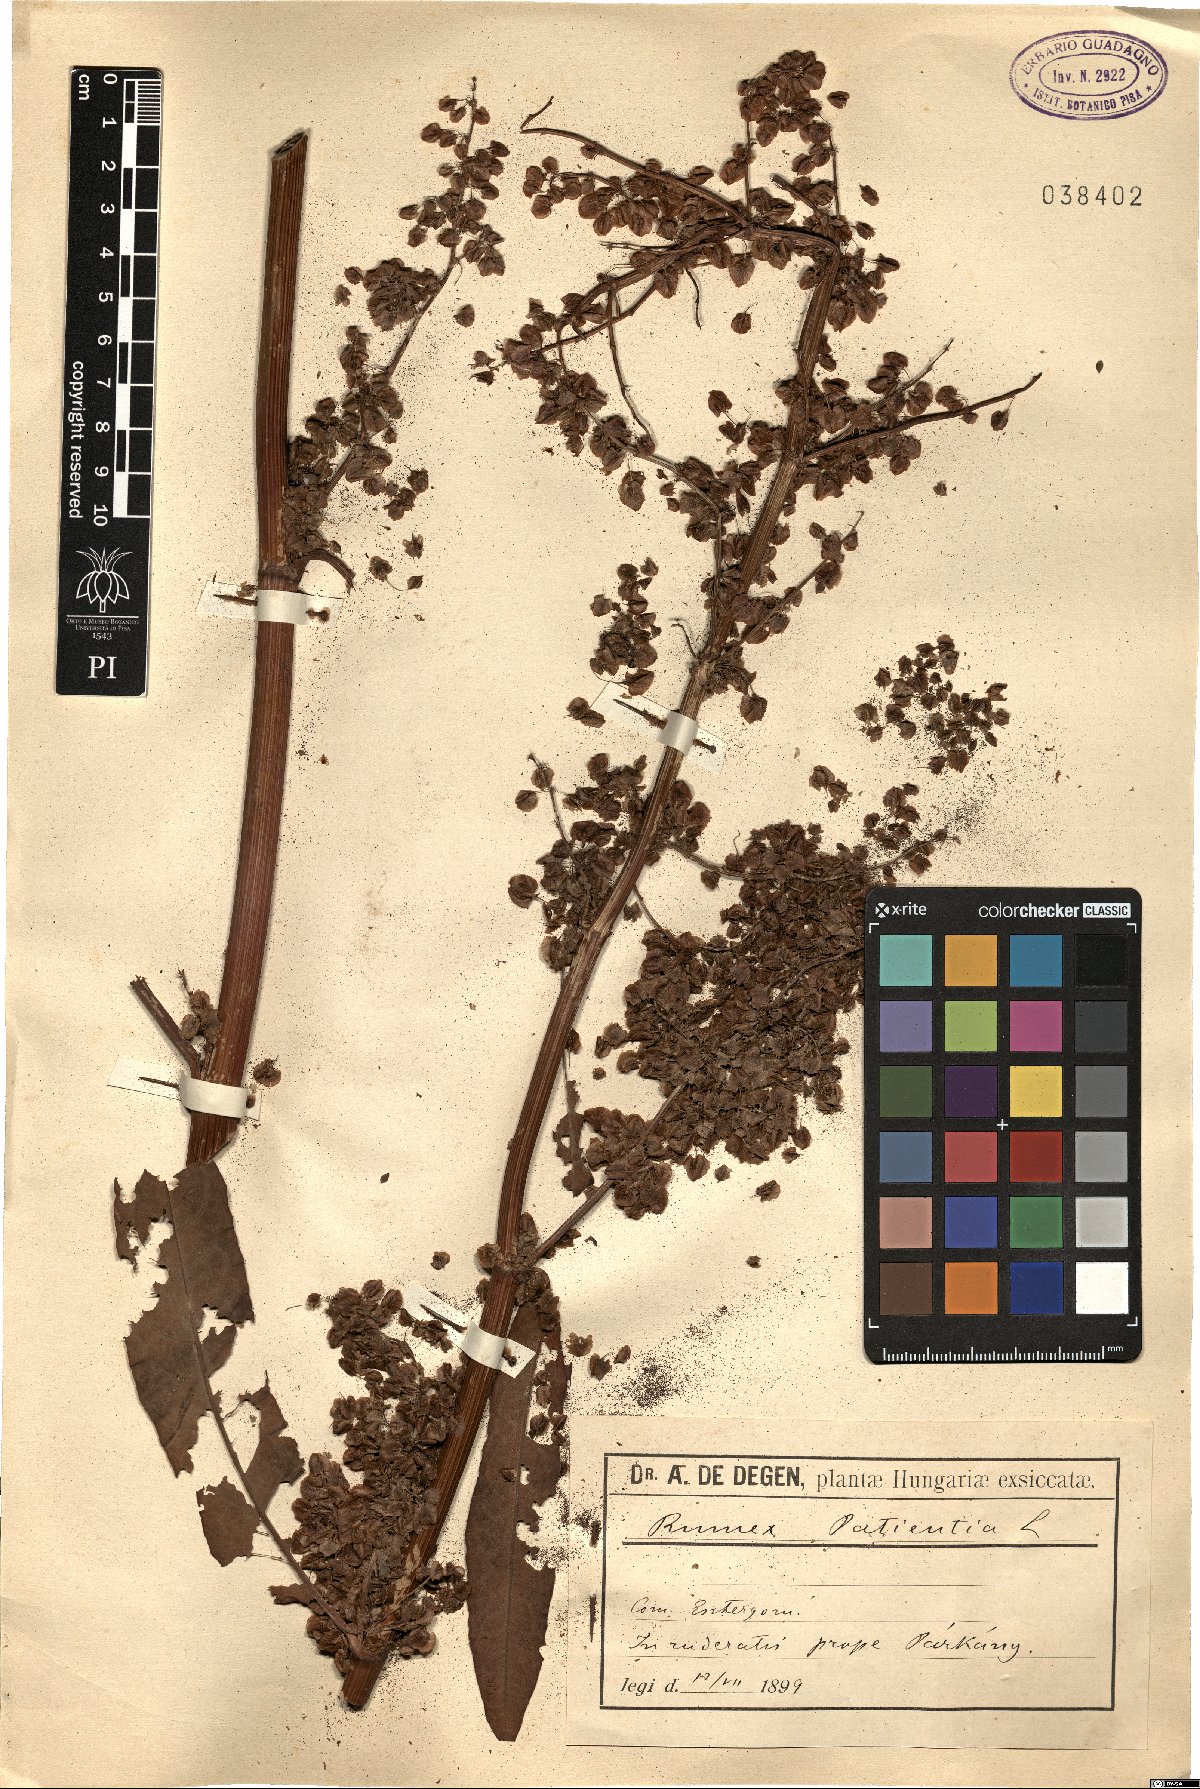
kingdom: Plantae
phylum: Tracheophyta
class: Magnoliopsida
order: Caryophyllales
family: Polygonaceae
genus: Rumex
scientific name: Rumex patientia
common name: Patience dock
